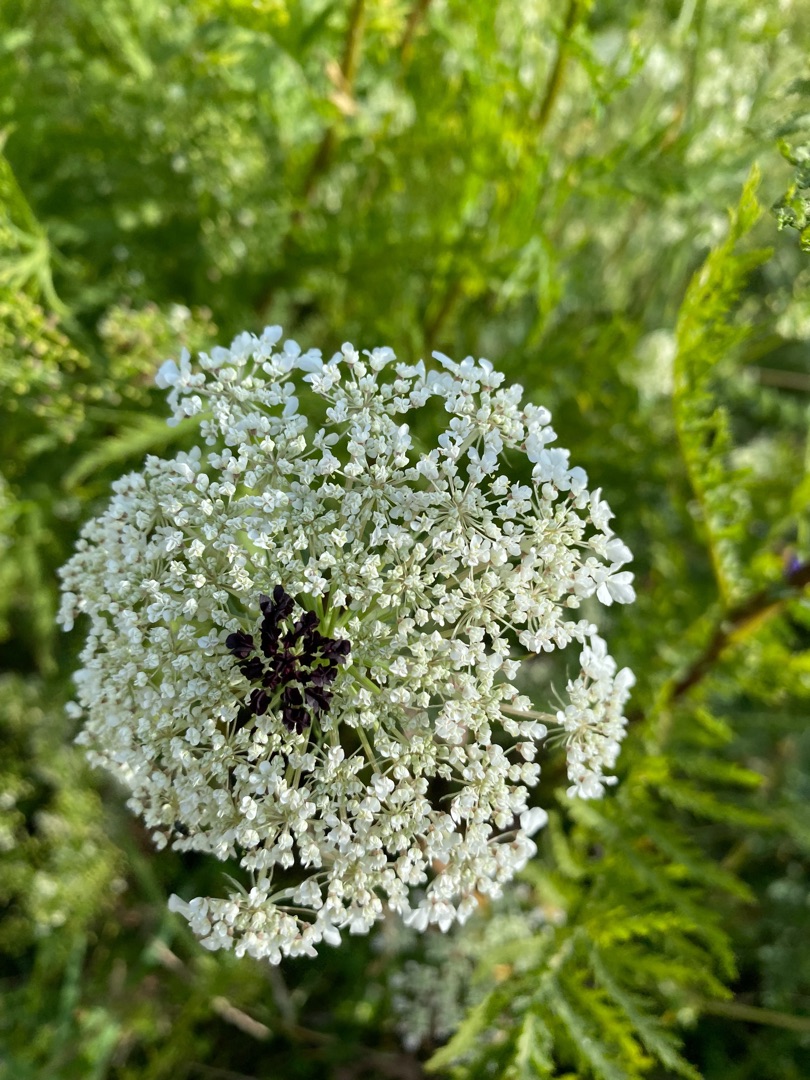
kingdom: Plantae
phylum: Tracheophyta
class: Magnoliopsida
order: Apiales
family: Apiaceae
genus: Daucus
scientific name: Daucus carota
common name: Gulerod
